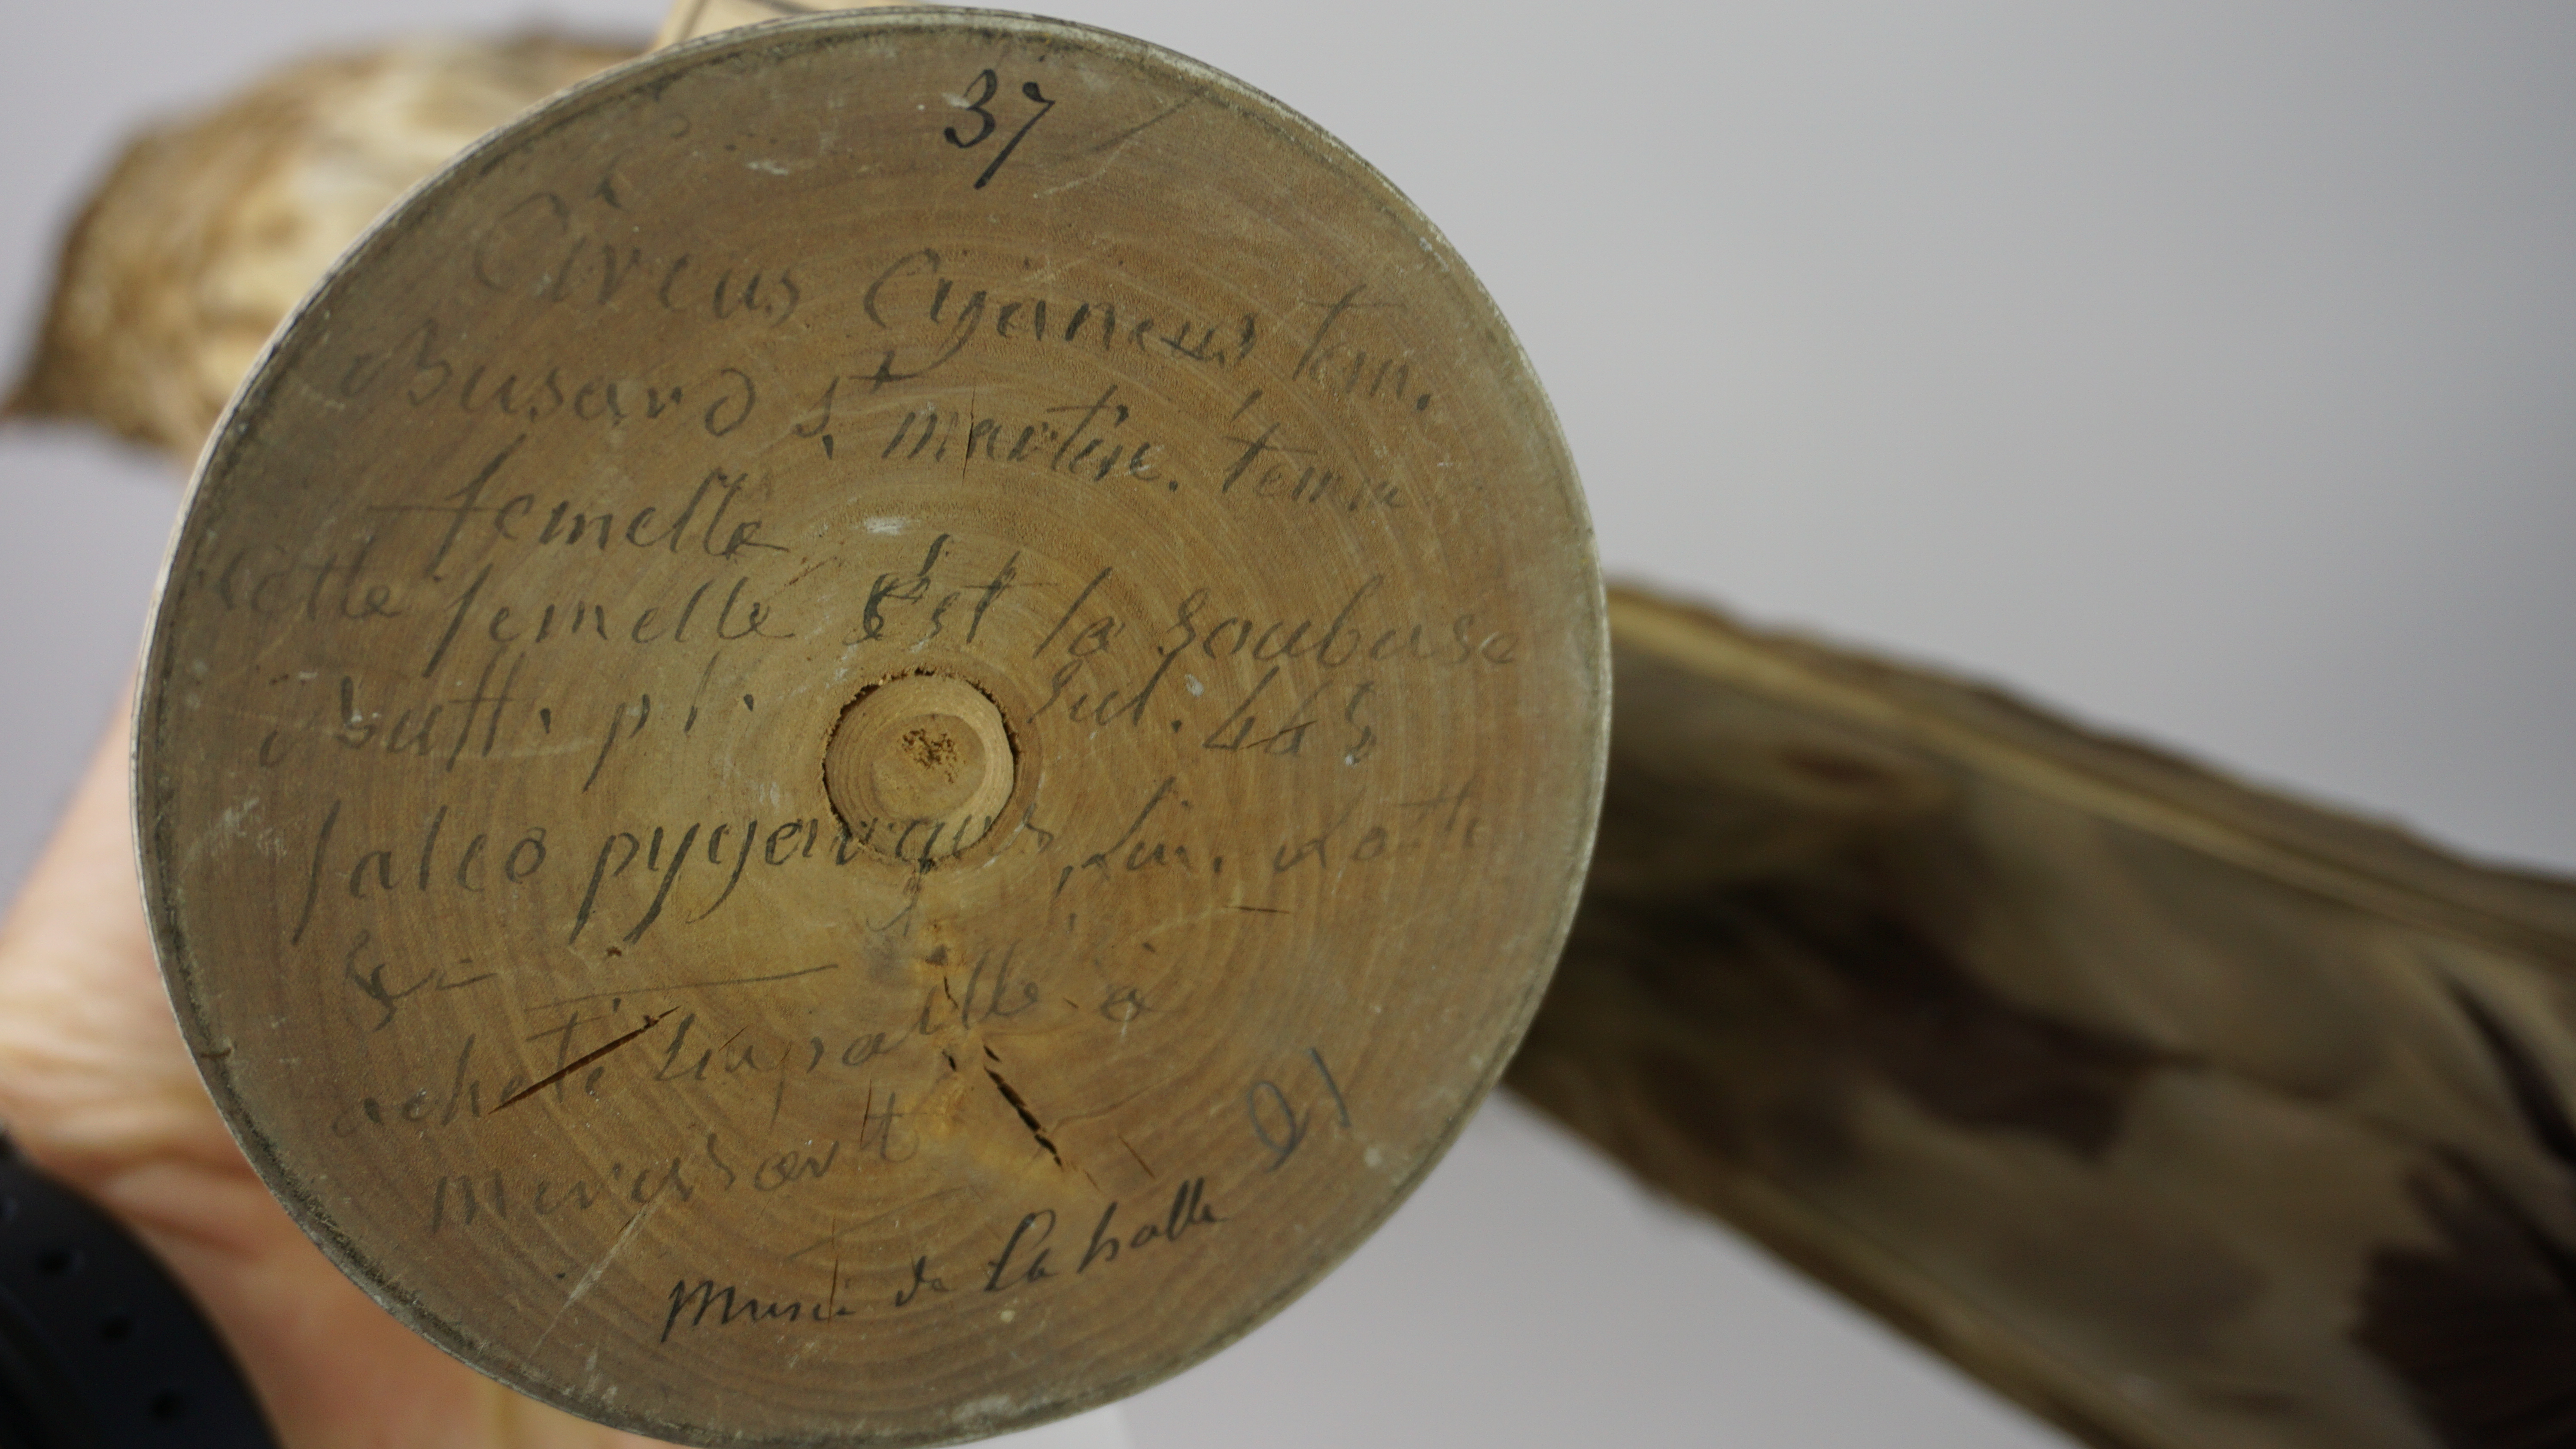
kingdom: Animalia
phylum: Chordata
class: Aves
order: Accipitriformes
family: Accipitridae
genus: Circus
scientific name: Circus cyaneus
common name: Hen harrier
